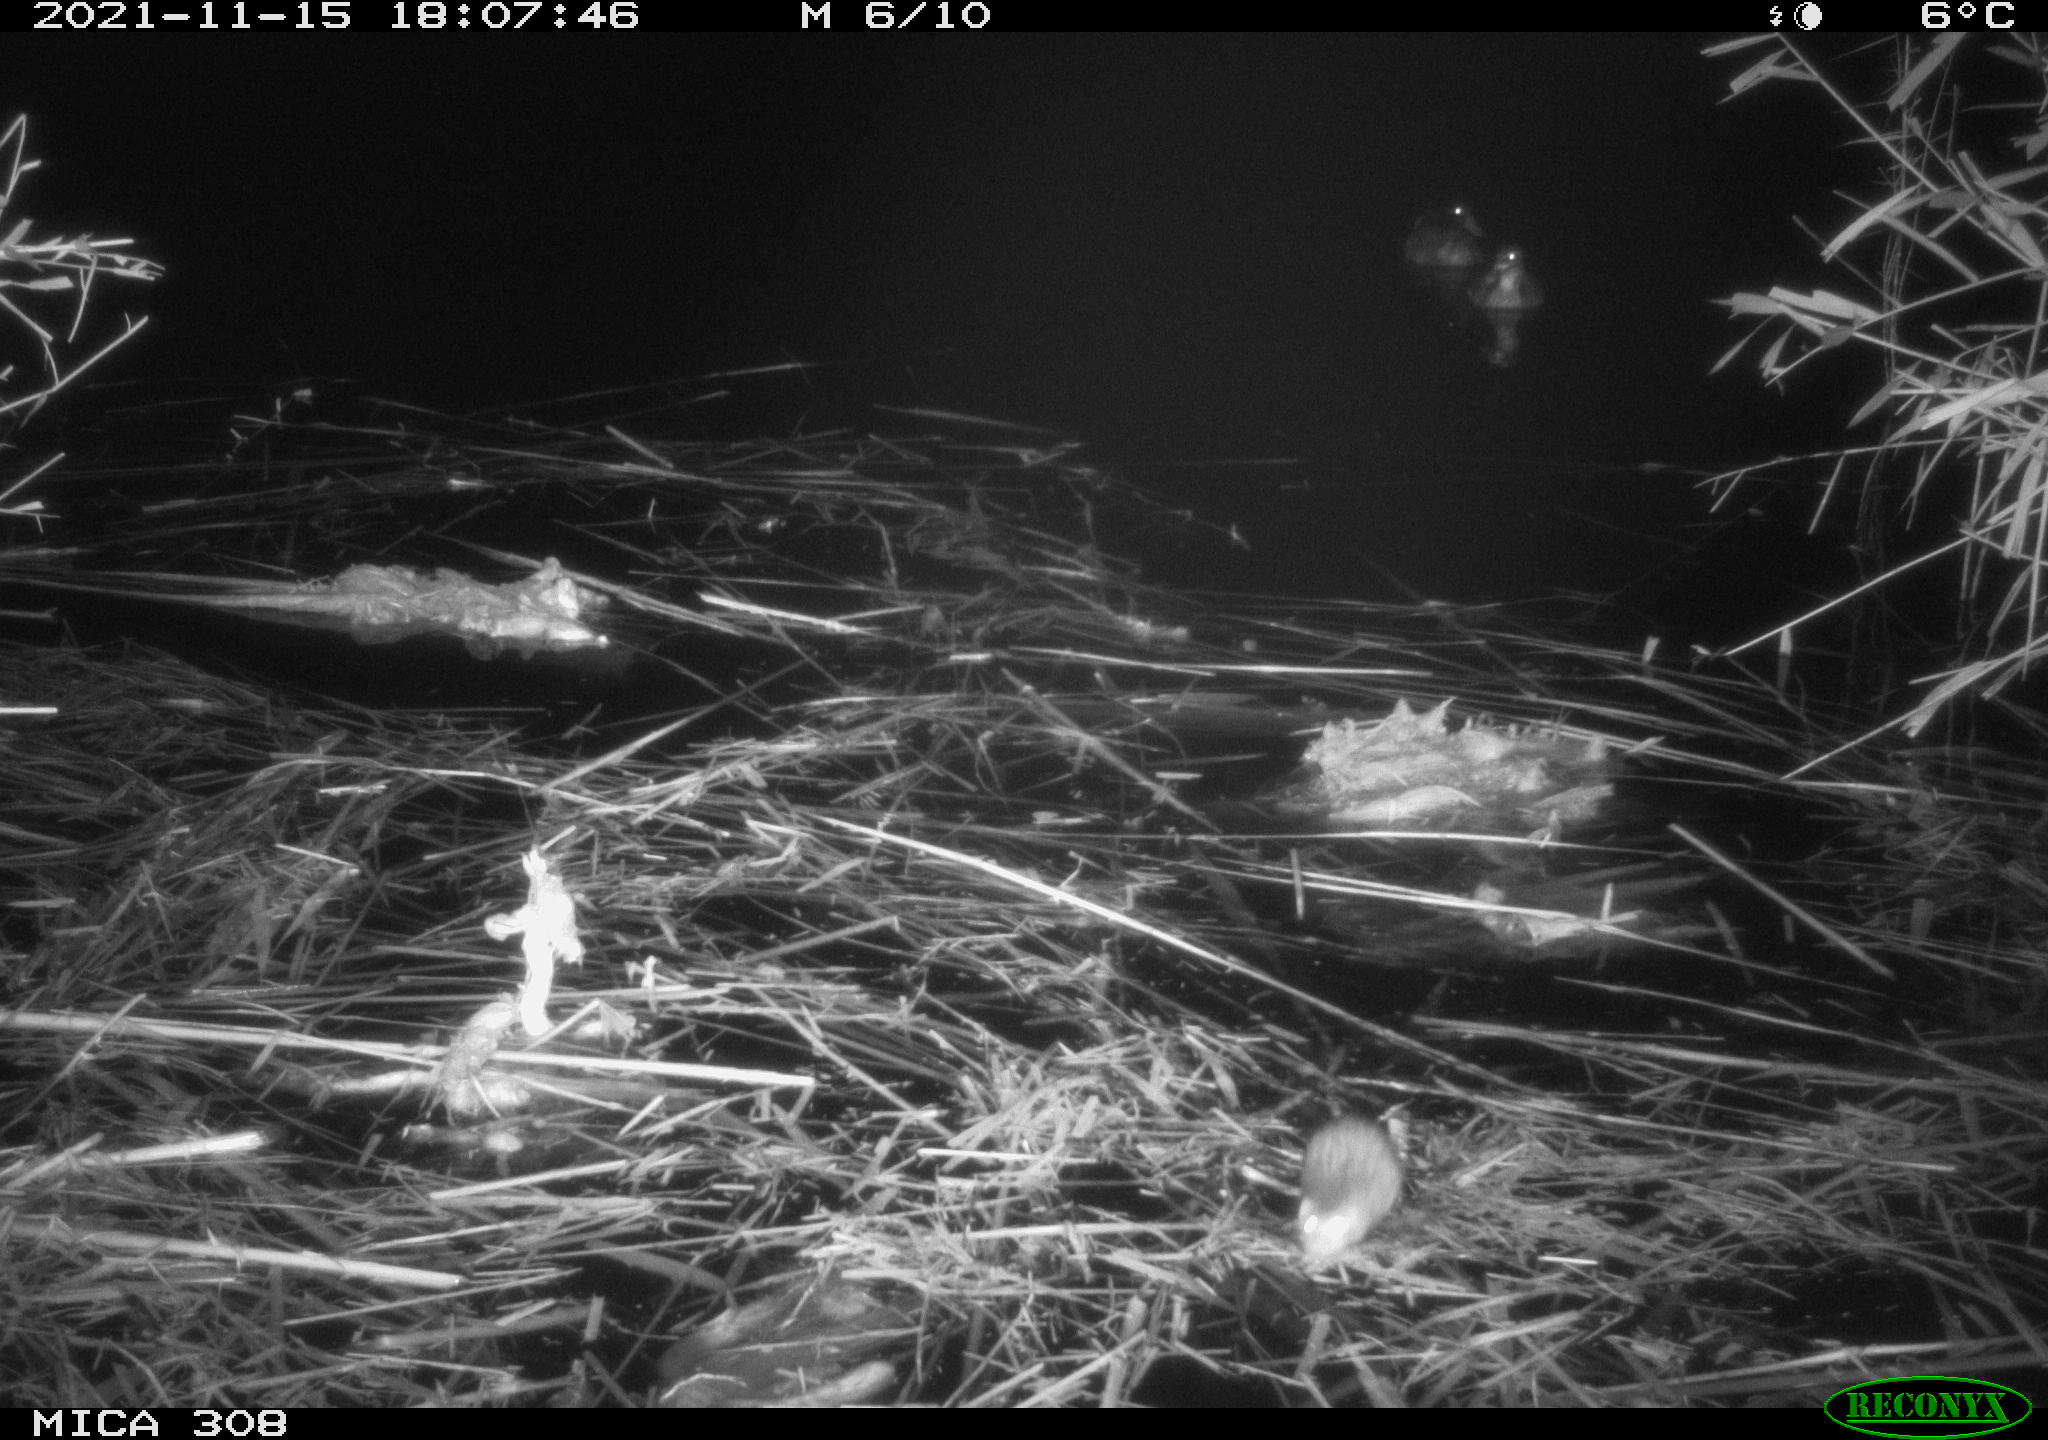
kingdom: Animalia
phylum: Chordata
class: Aves
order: Anseriformes
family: Anatidae
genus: Anas
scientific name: Anas platyrhynchos
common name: Mallard
